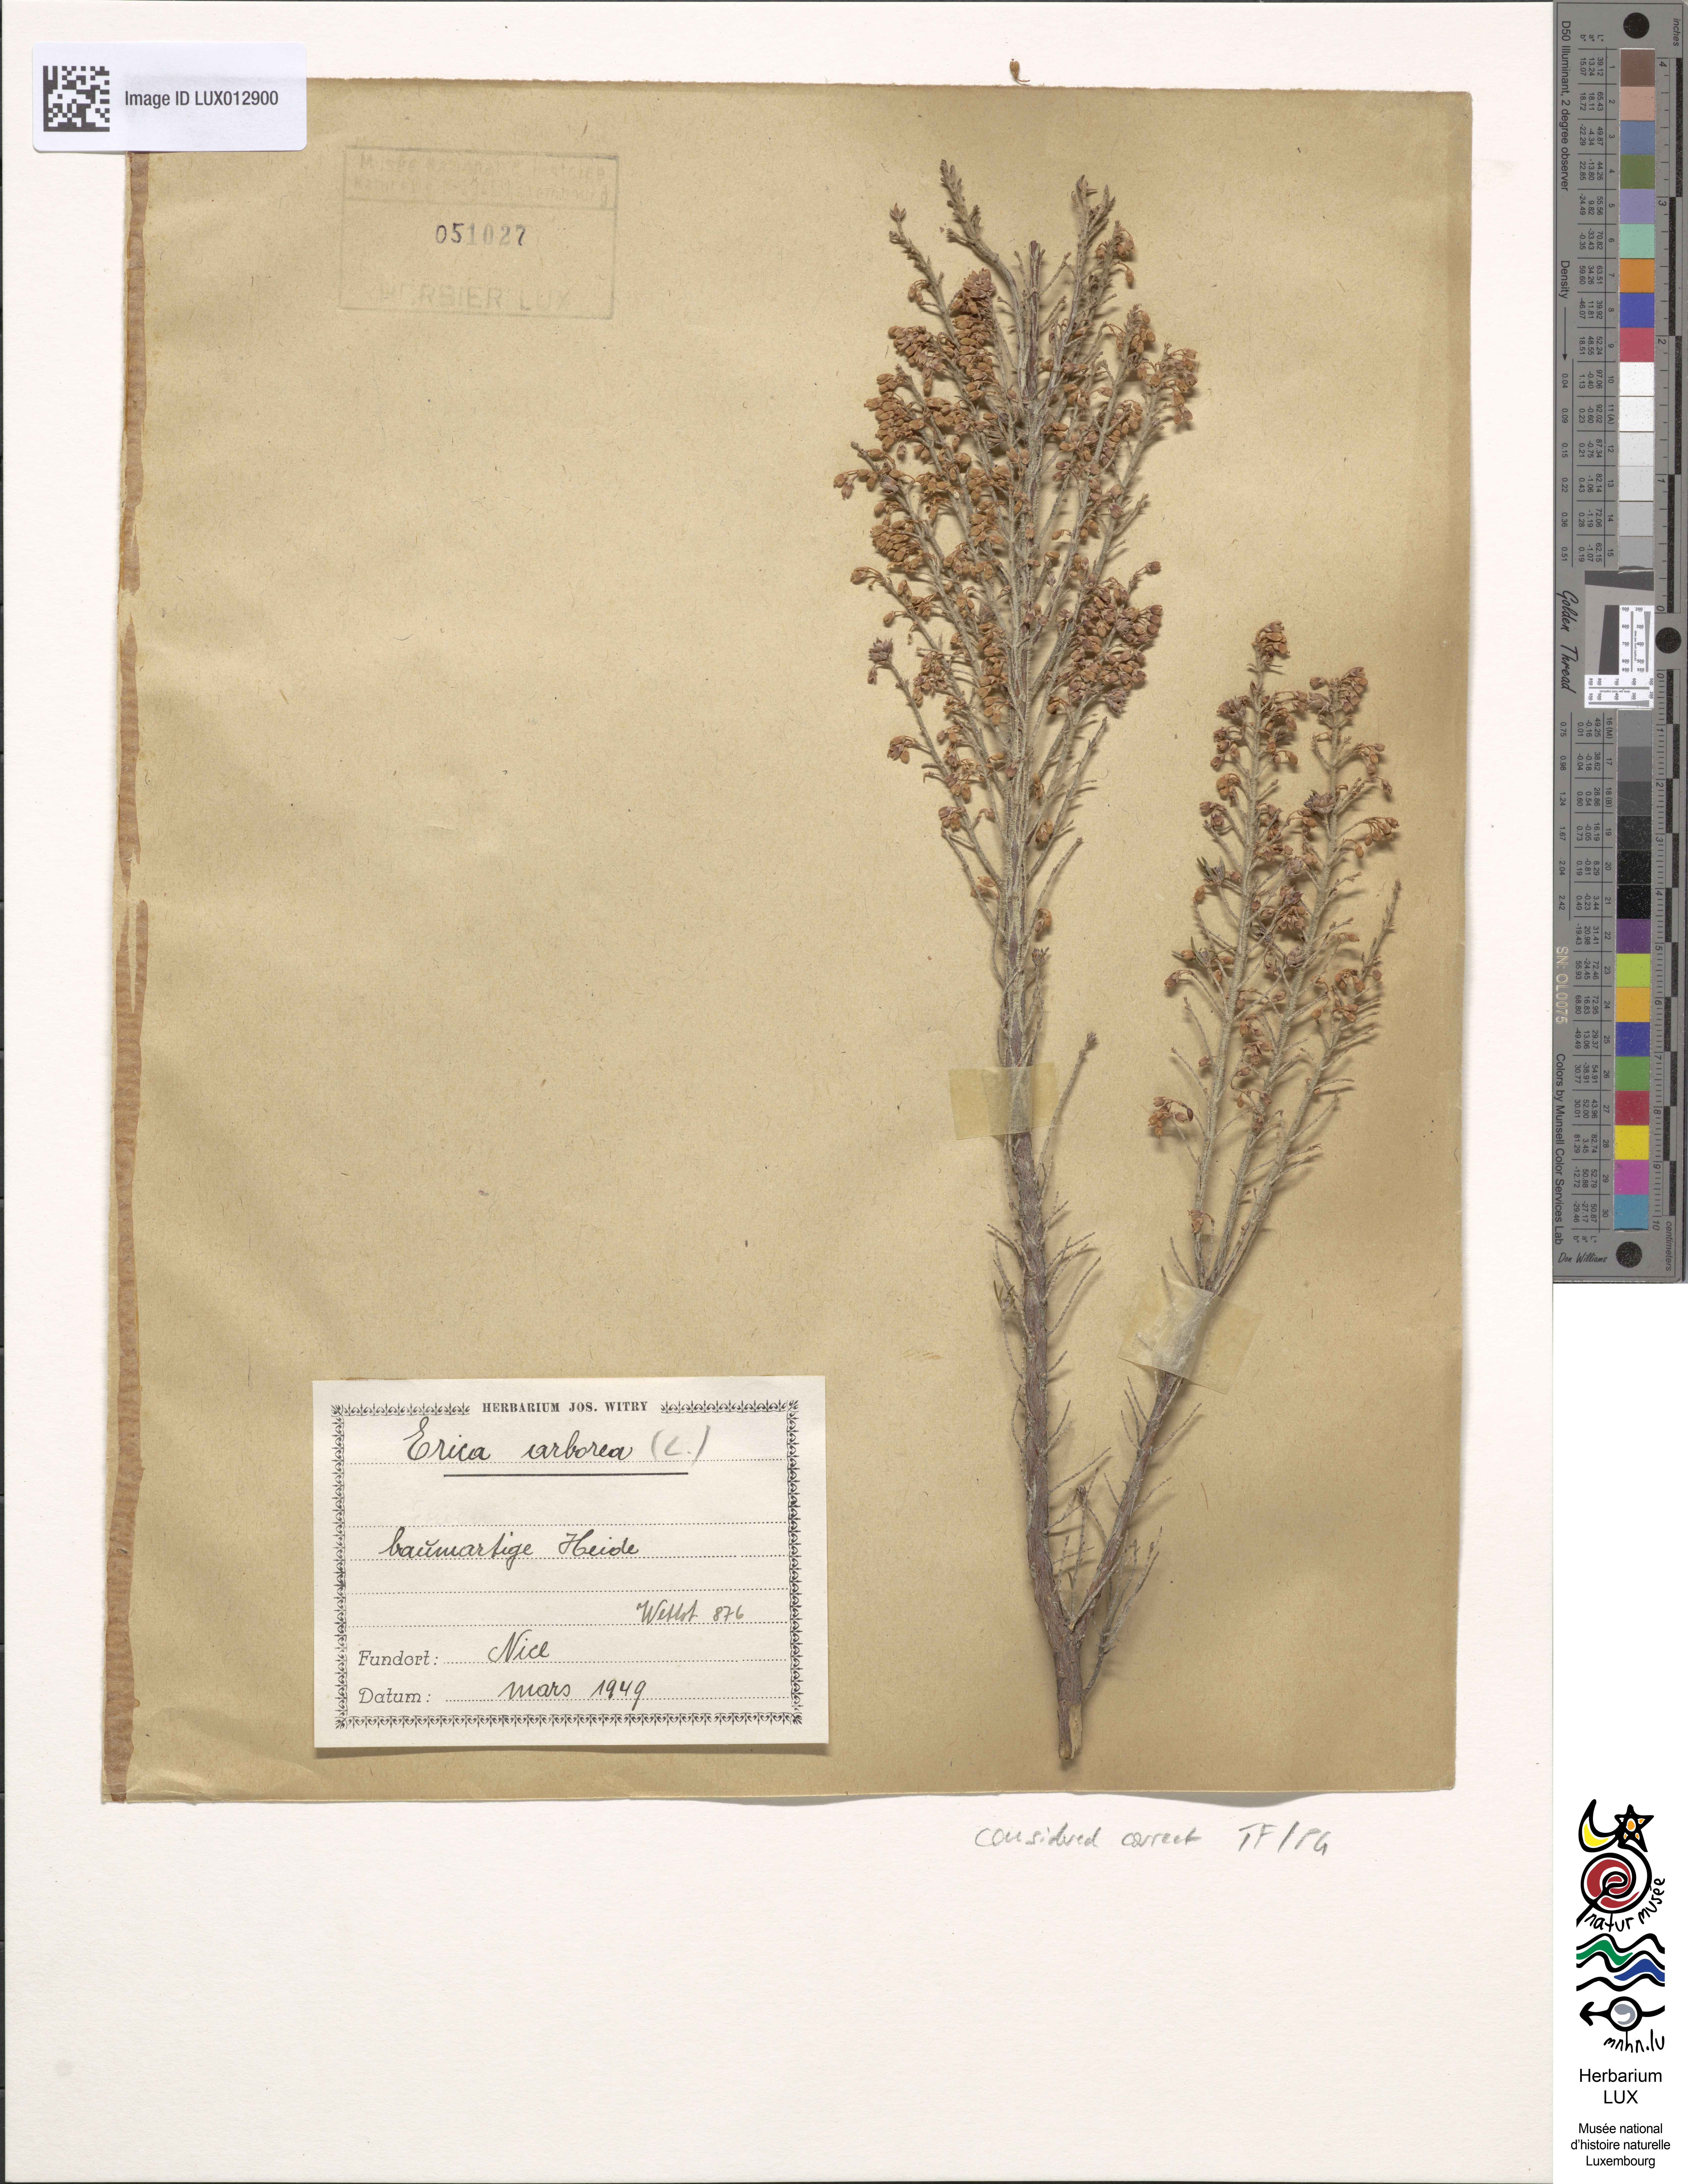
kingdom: Plantae
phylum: Tracheophyta
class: Magnoliopsida
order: Ericales
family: Ericaceae
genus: Erica
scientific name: Erica arborea
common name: Tree heath
